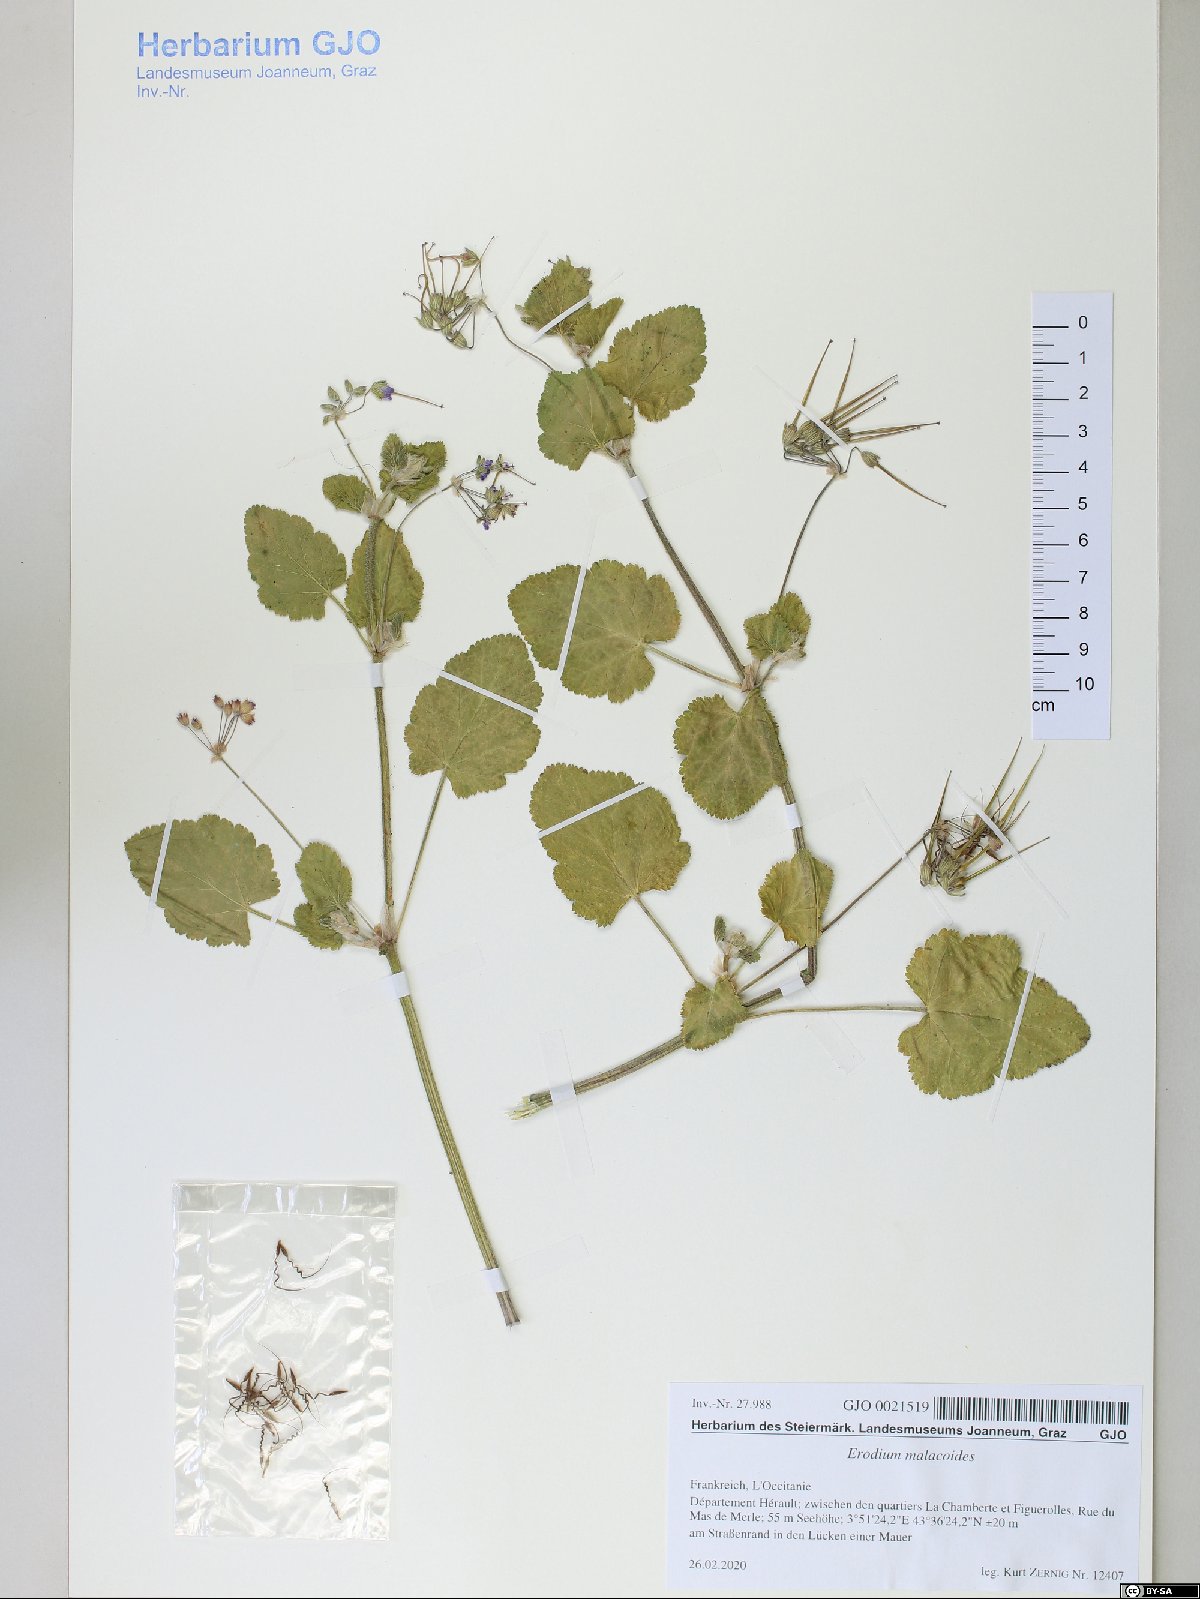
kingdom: Plantae
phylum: Tracheophyta
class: Magnoliopsida
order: Geraniales
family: Geraniaceae
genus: Erodium
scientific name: Erodium malacoides
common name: Soft stork's-bill
